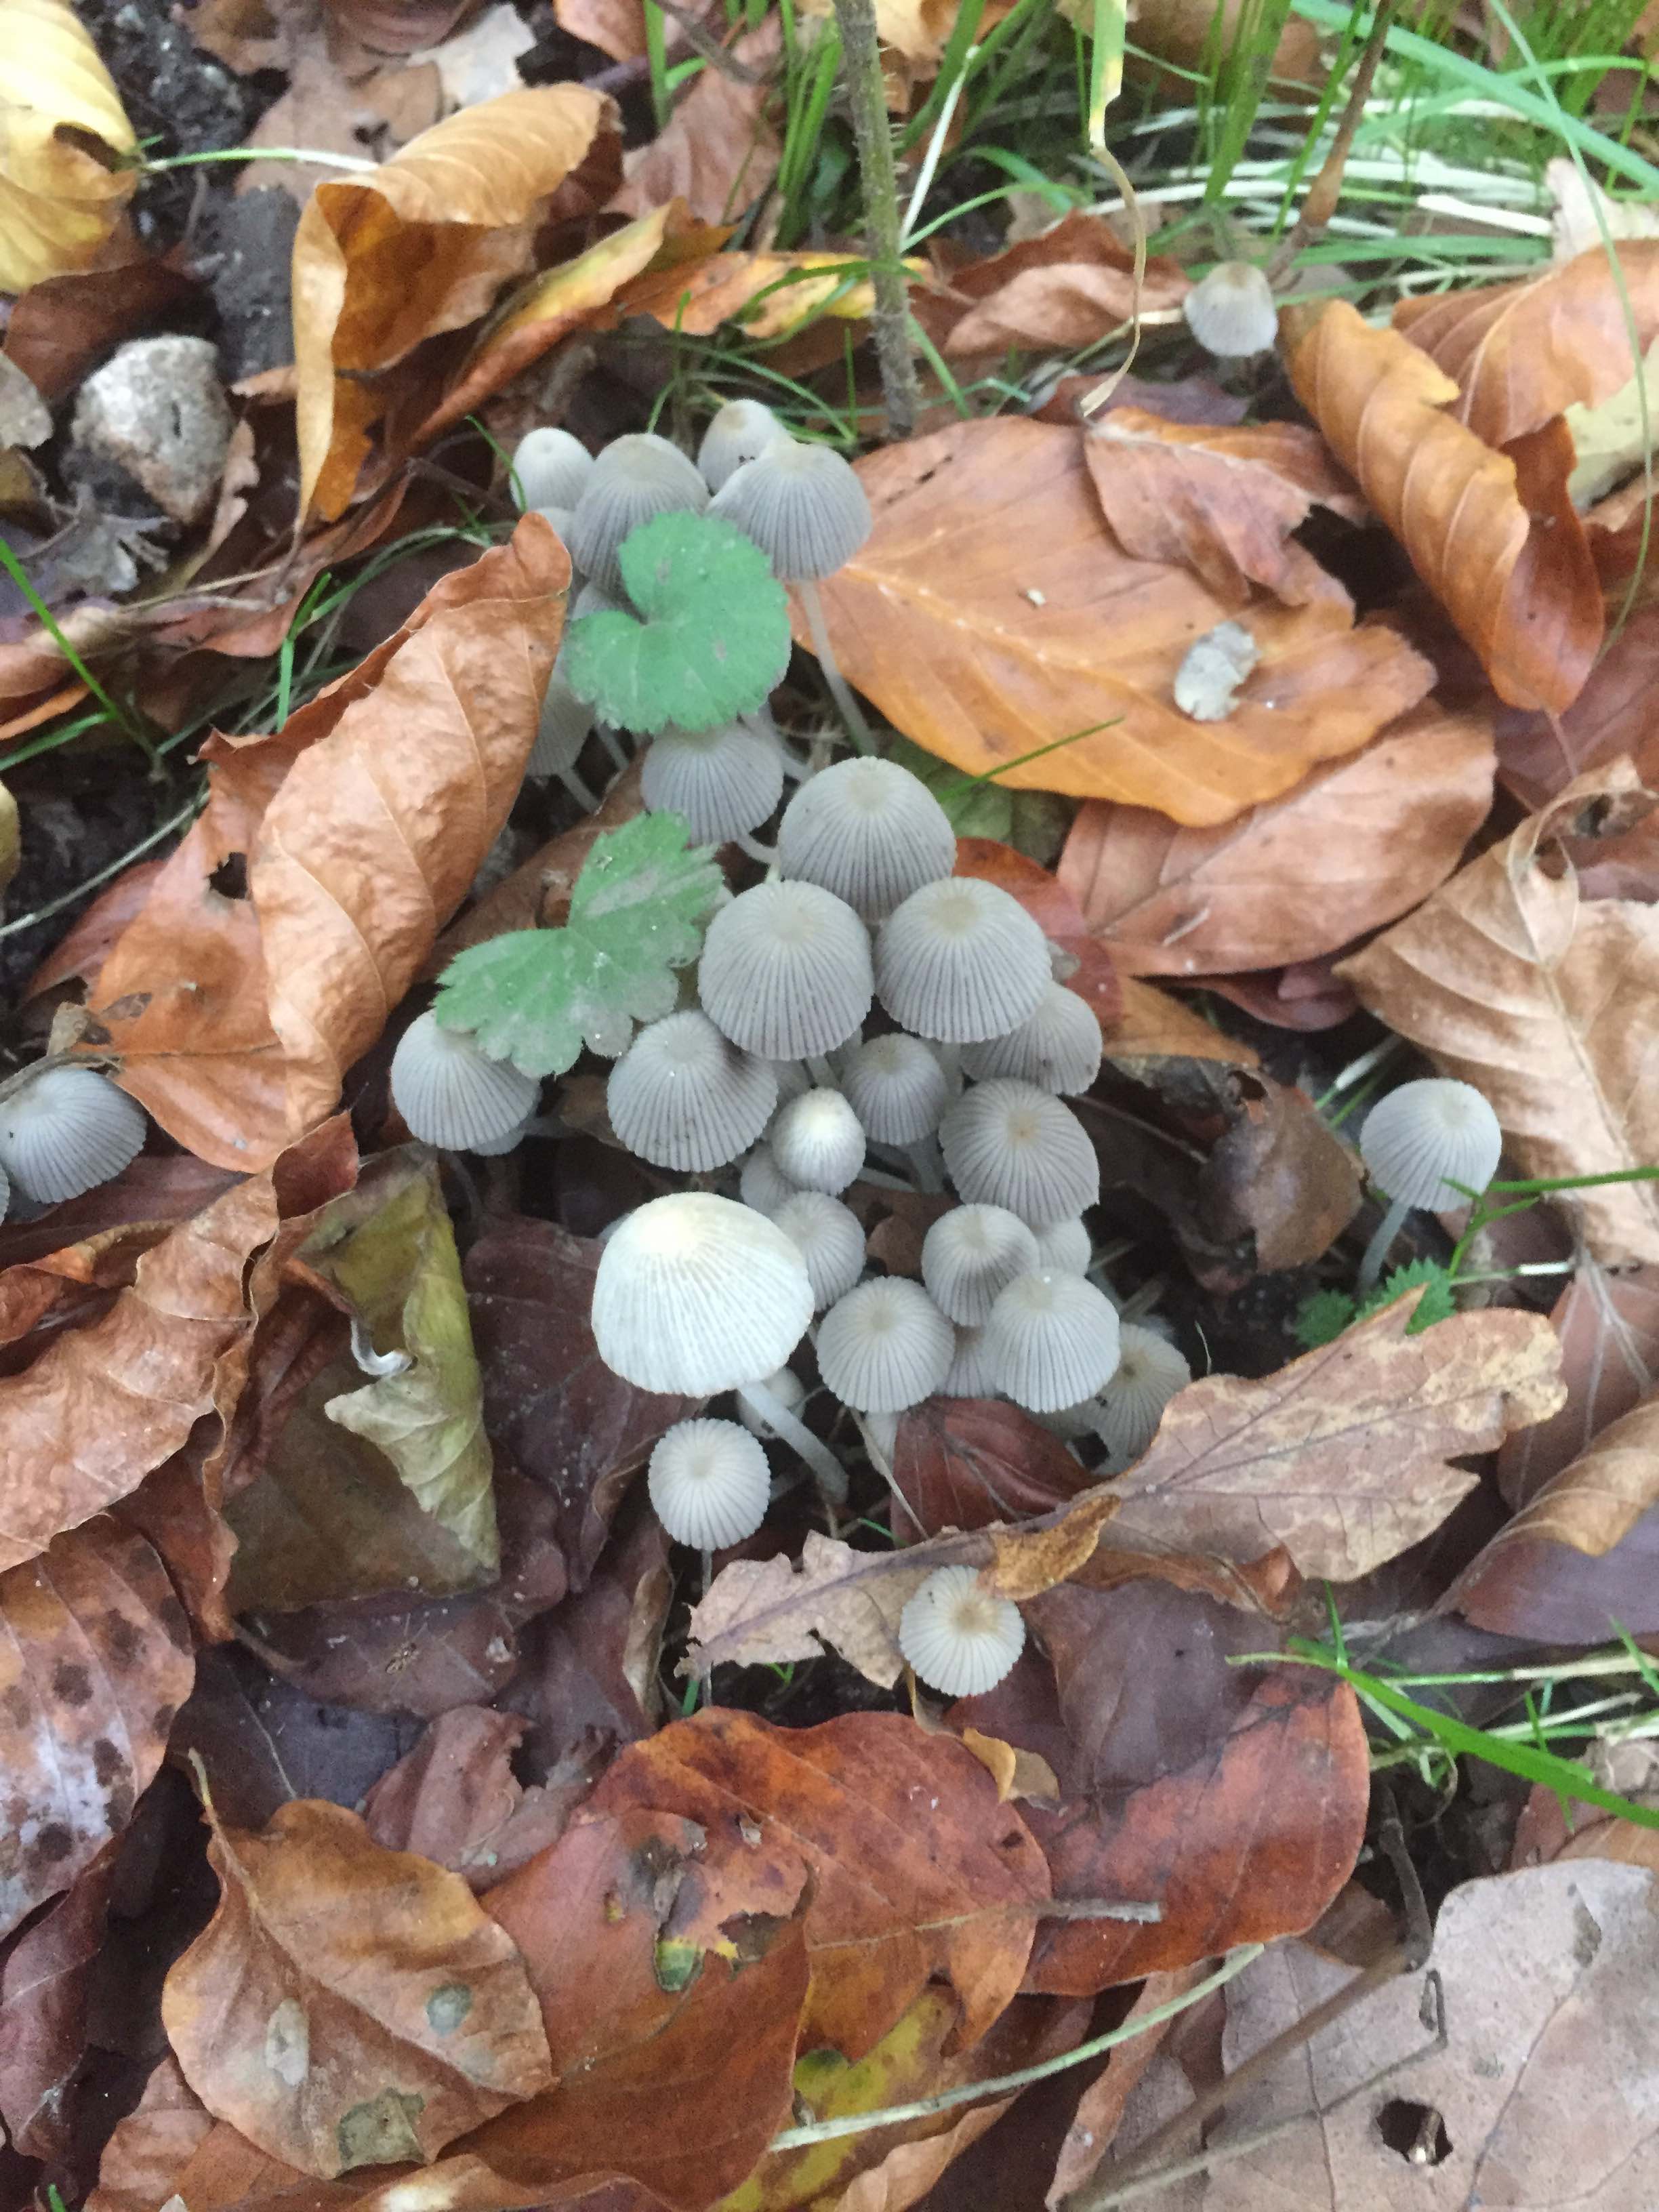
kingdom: Fungi
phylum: Basidiomycota
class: Agaricomycetes
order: Agaricales
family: Psathyrellaceae
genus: Coprinellus
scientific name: Coprinellus disseminatus
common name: bredsået blækhat
